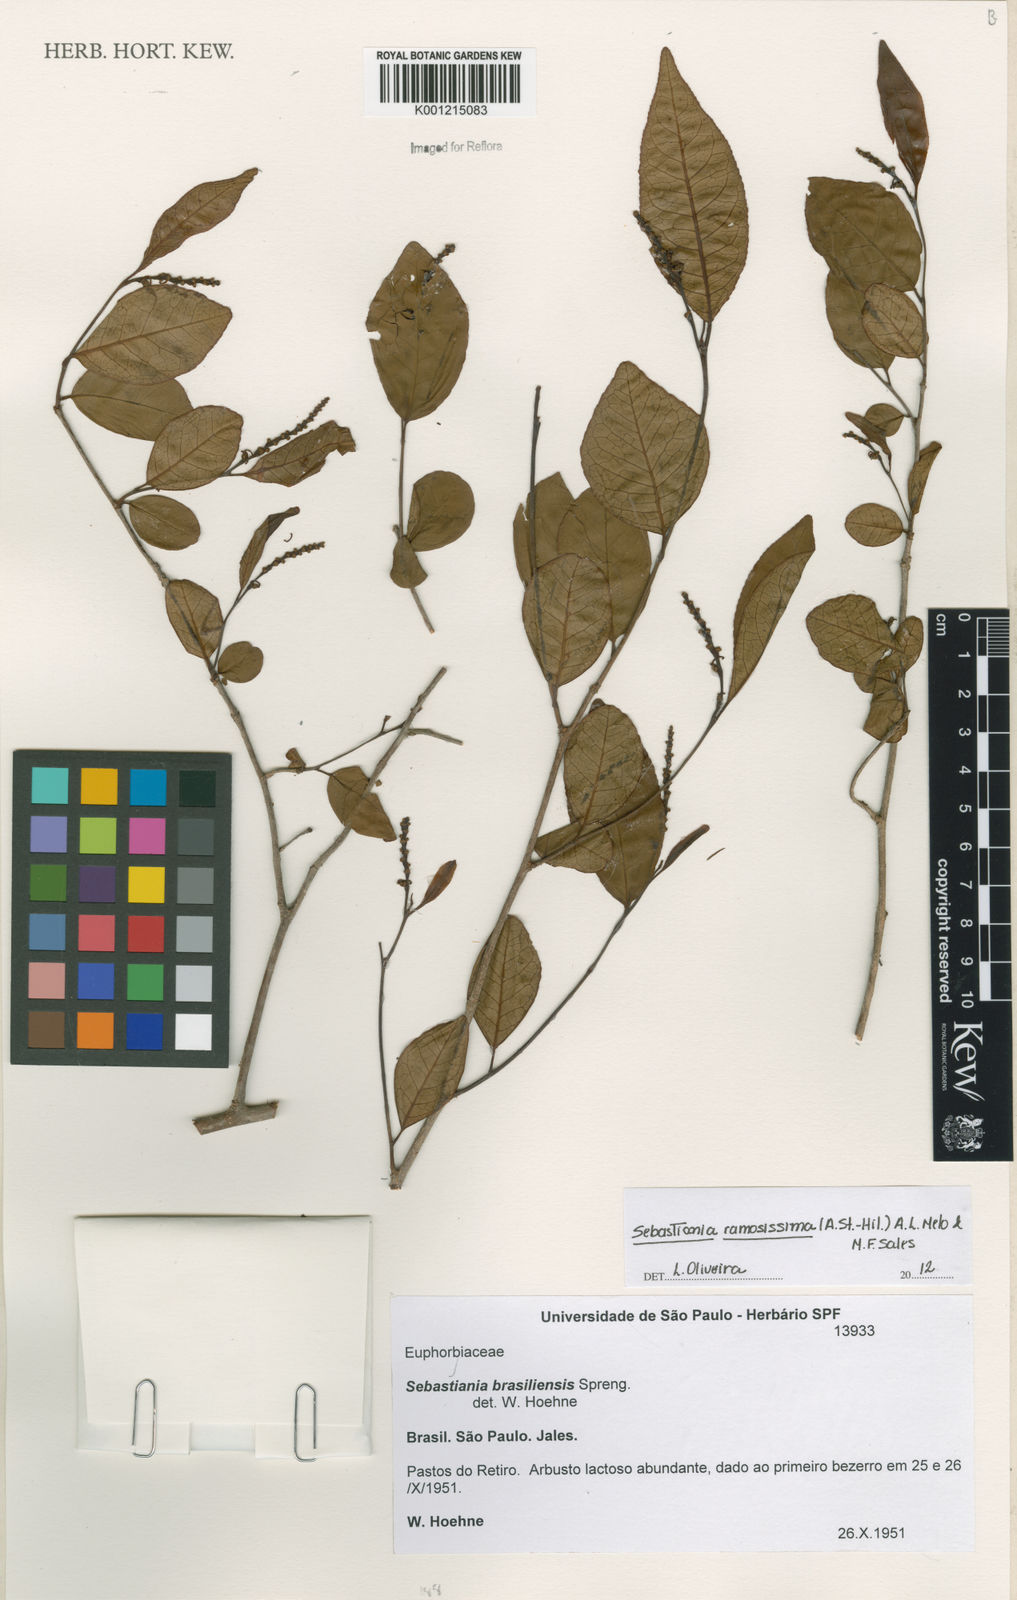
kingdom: Plantae
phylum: Tracheophyta
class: Magnoliopsida
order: Malpighiales
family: Euphorbiaceae
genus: Sebastiania
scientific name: Sebastiania
